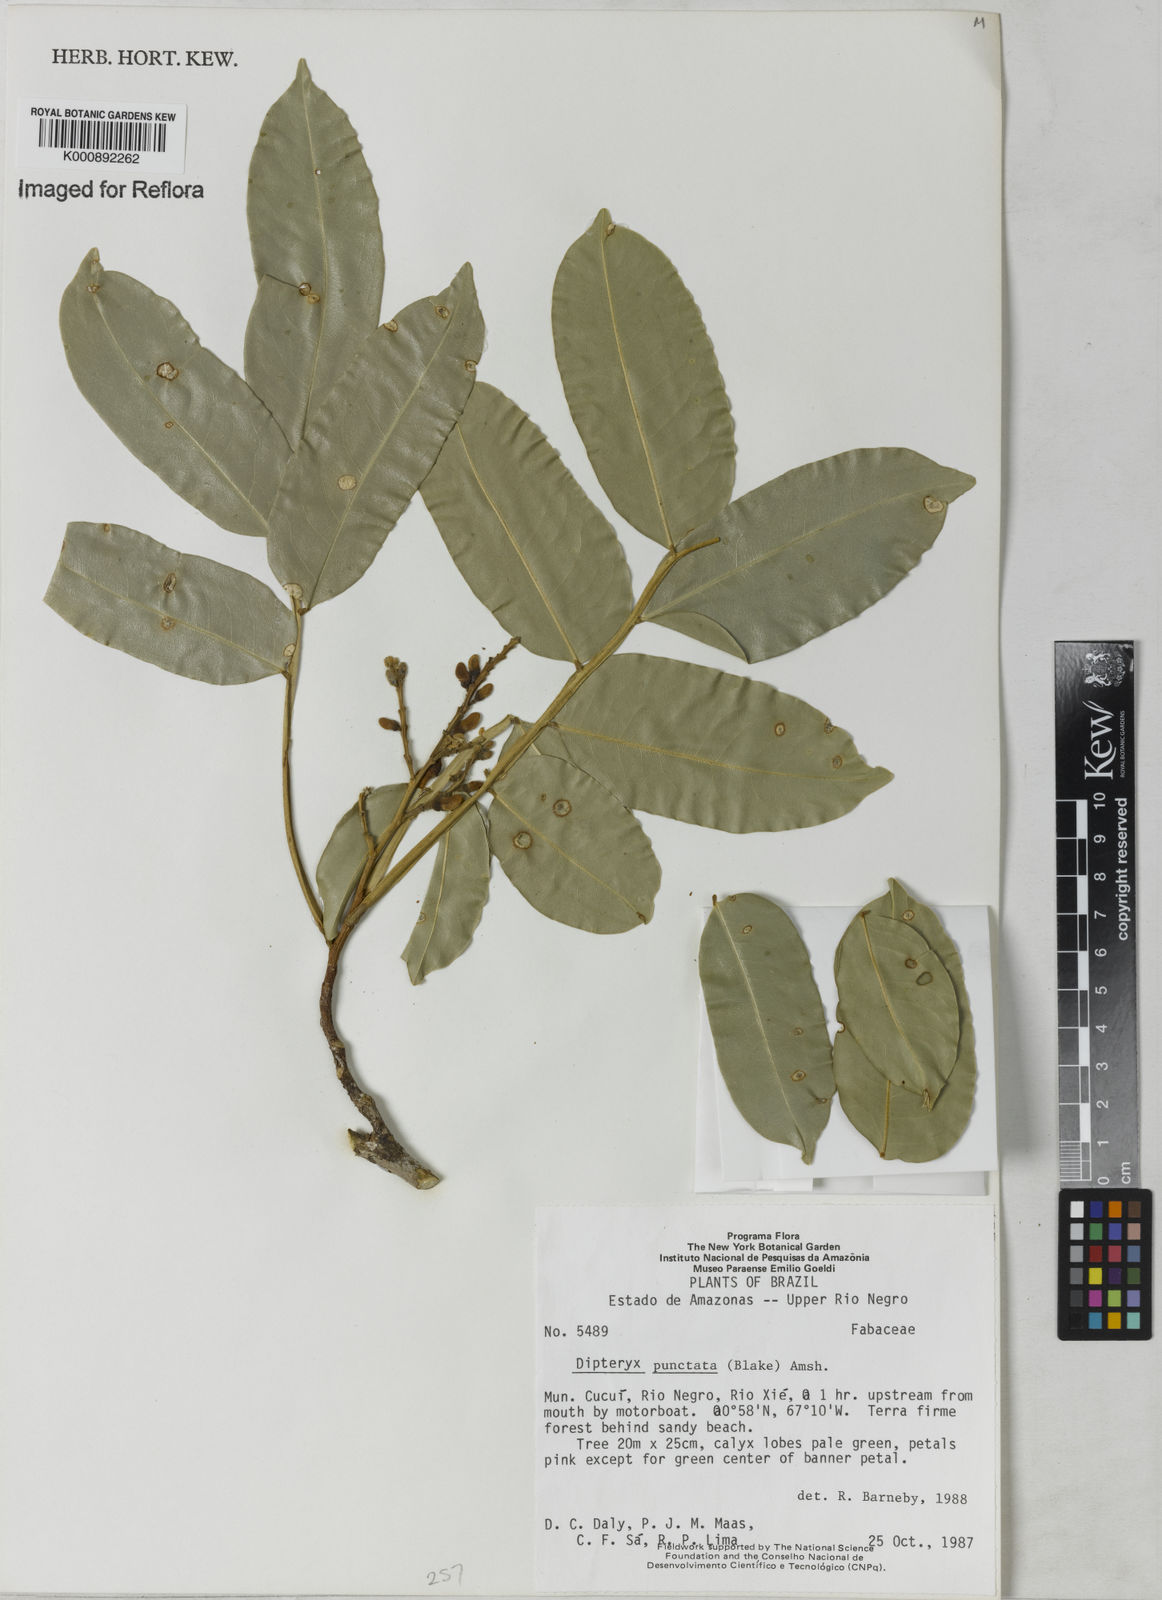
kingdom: Plantae
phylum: Tracheophyta
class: Magnoliopsida
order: Fabales
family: Fabaceae
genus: Dipteryx
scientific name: Dipteryx punctata
